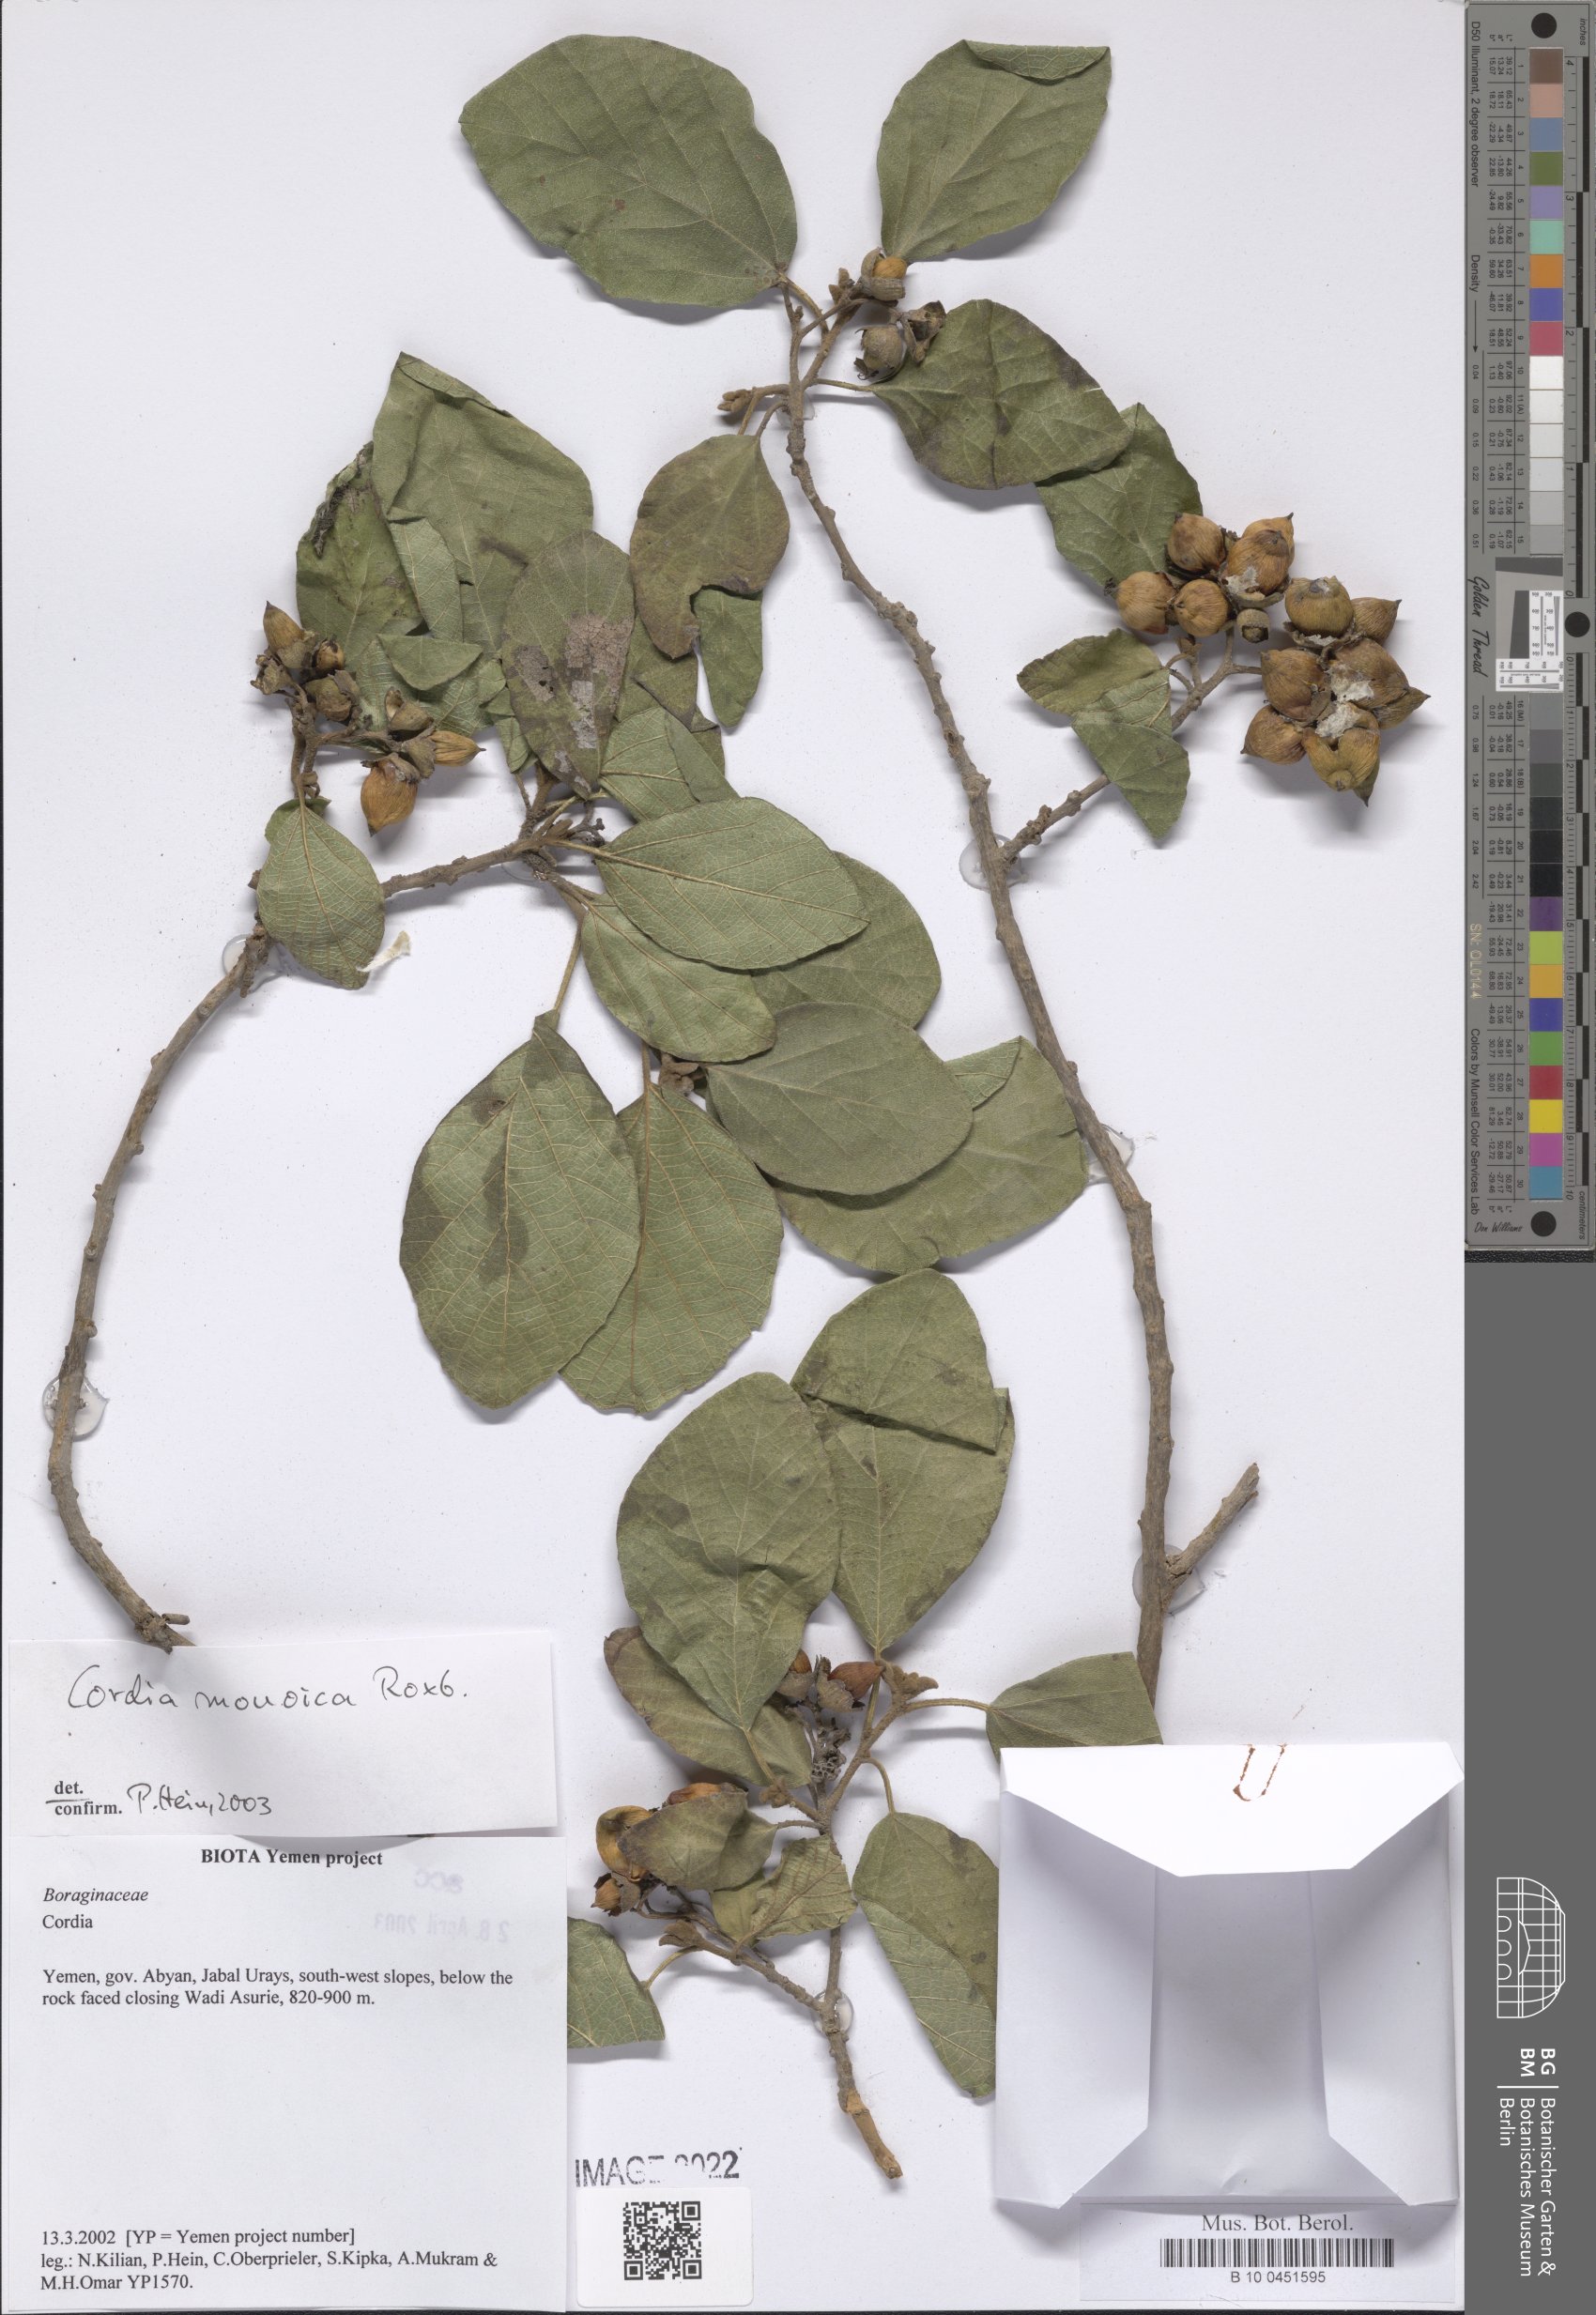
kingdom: Plantae
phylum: Tracheophyta
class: Magnoliopsida
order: Boraginales
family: Cordiaceae
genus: Cordia
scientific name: Cordia monoica
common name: Snot berry
